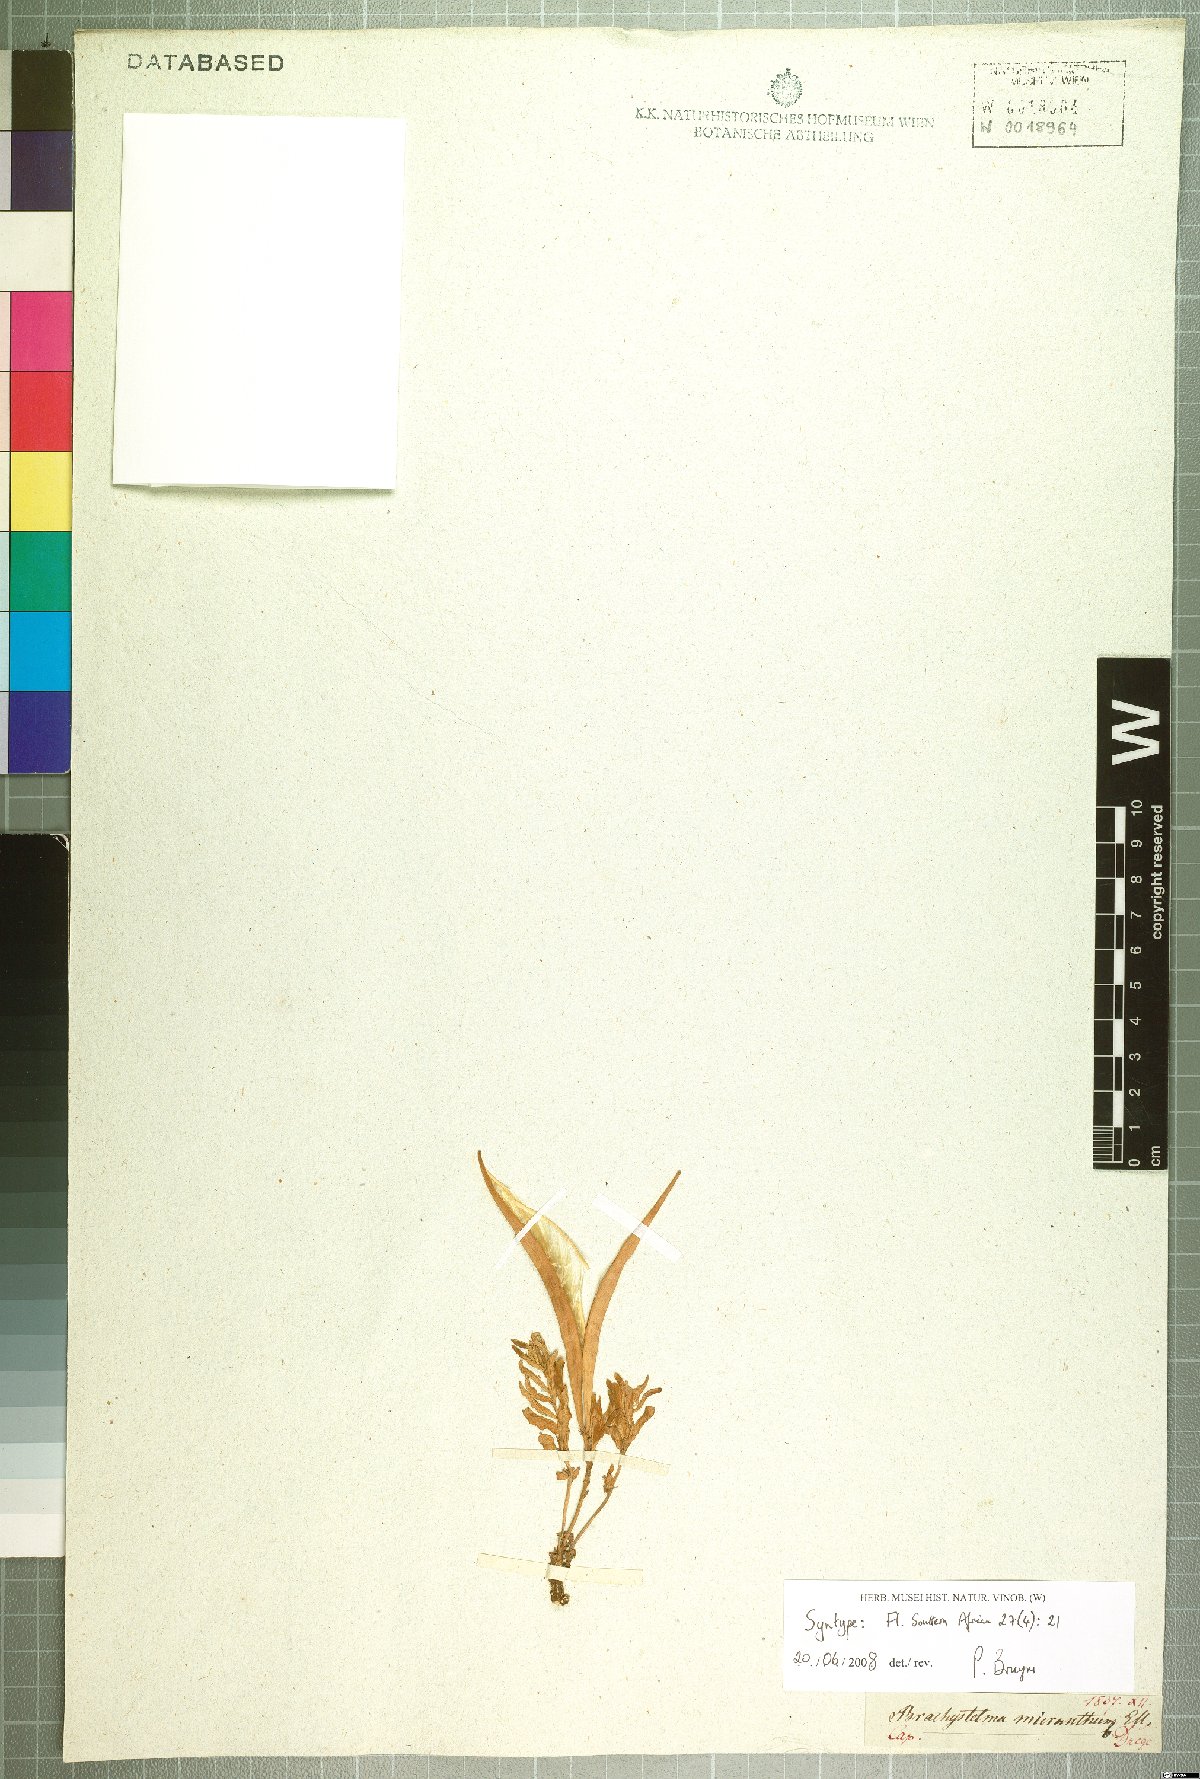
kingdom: Plantae
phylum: Tracheophyta
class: Magnoliopsida
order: Gentianales
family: Apocynaceae
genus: Ceropegia
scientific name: Ceropegia micriflora
